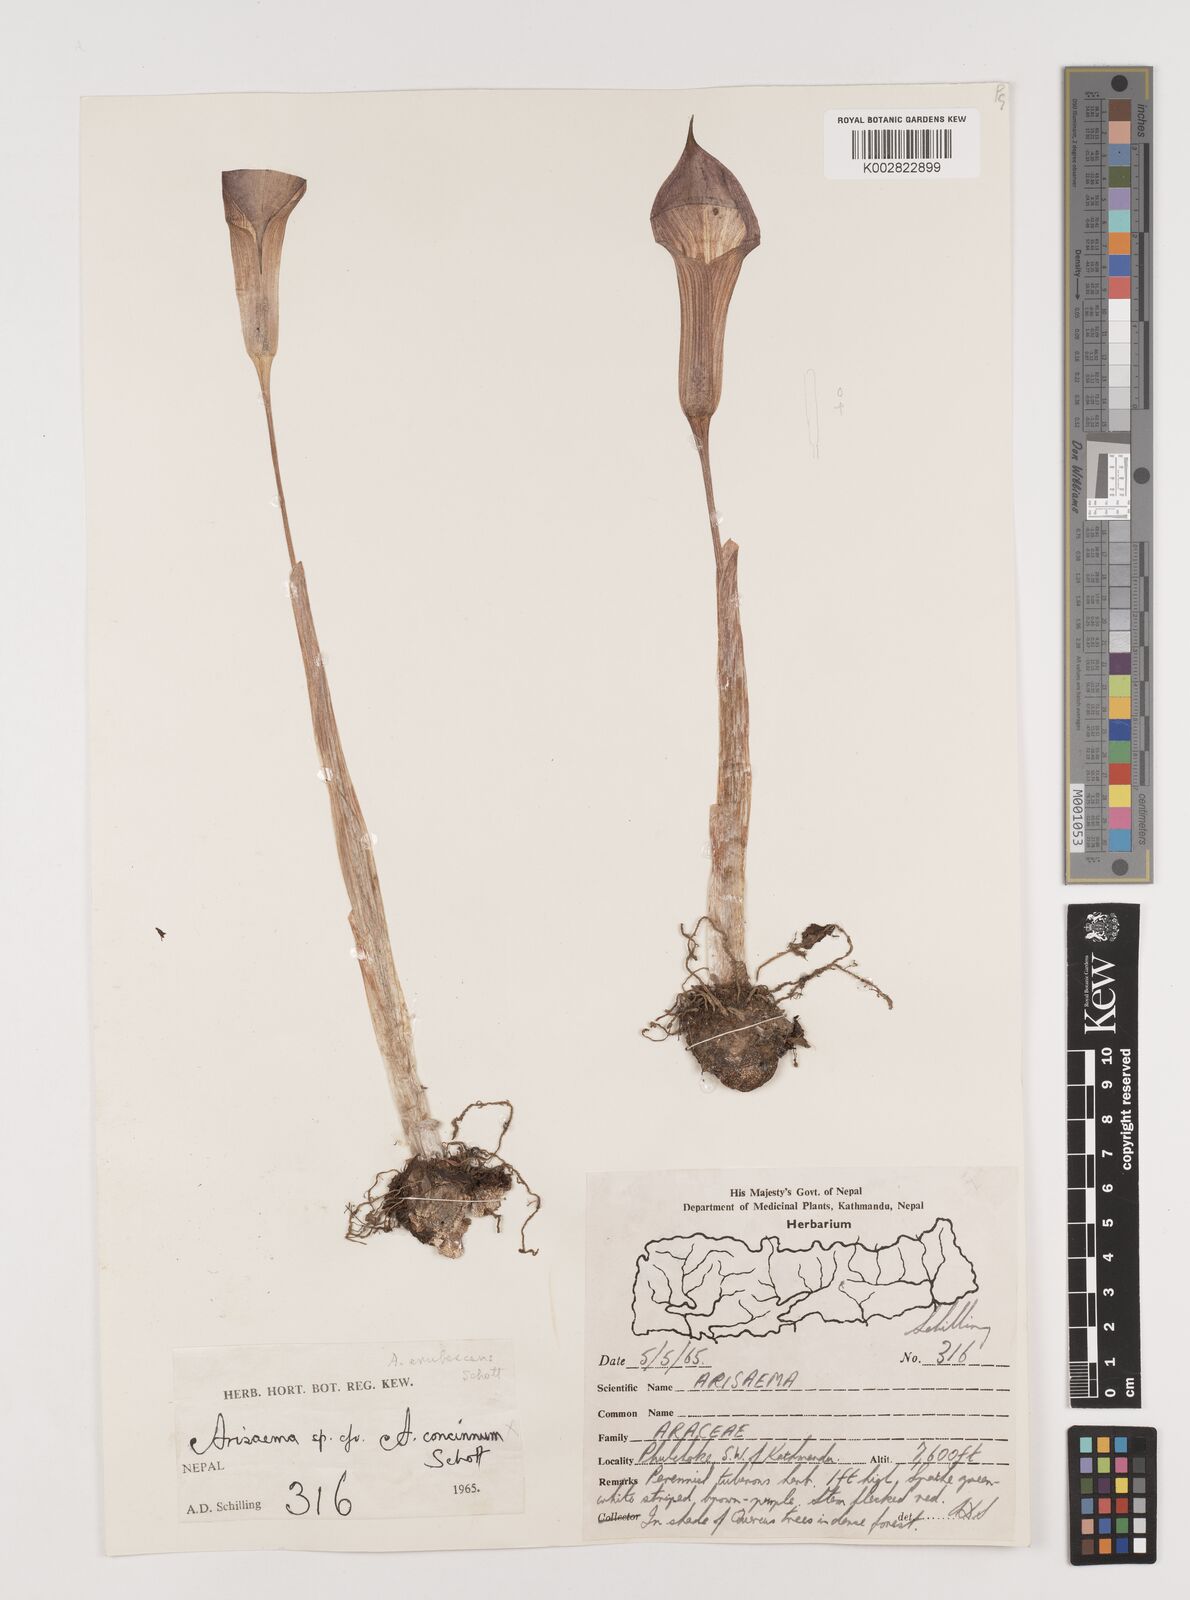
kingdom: Plantae
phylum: Tracheophyta
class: Liliopsida
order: Alismatales
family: Araceae
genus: Arisaema
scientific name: Arisaema erubescens
